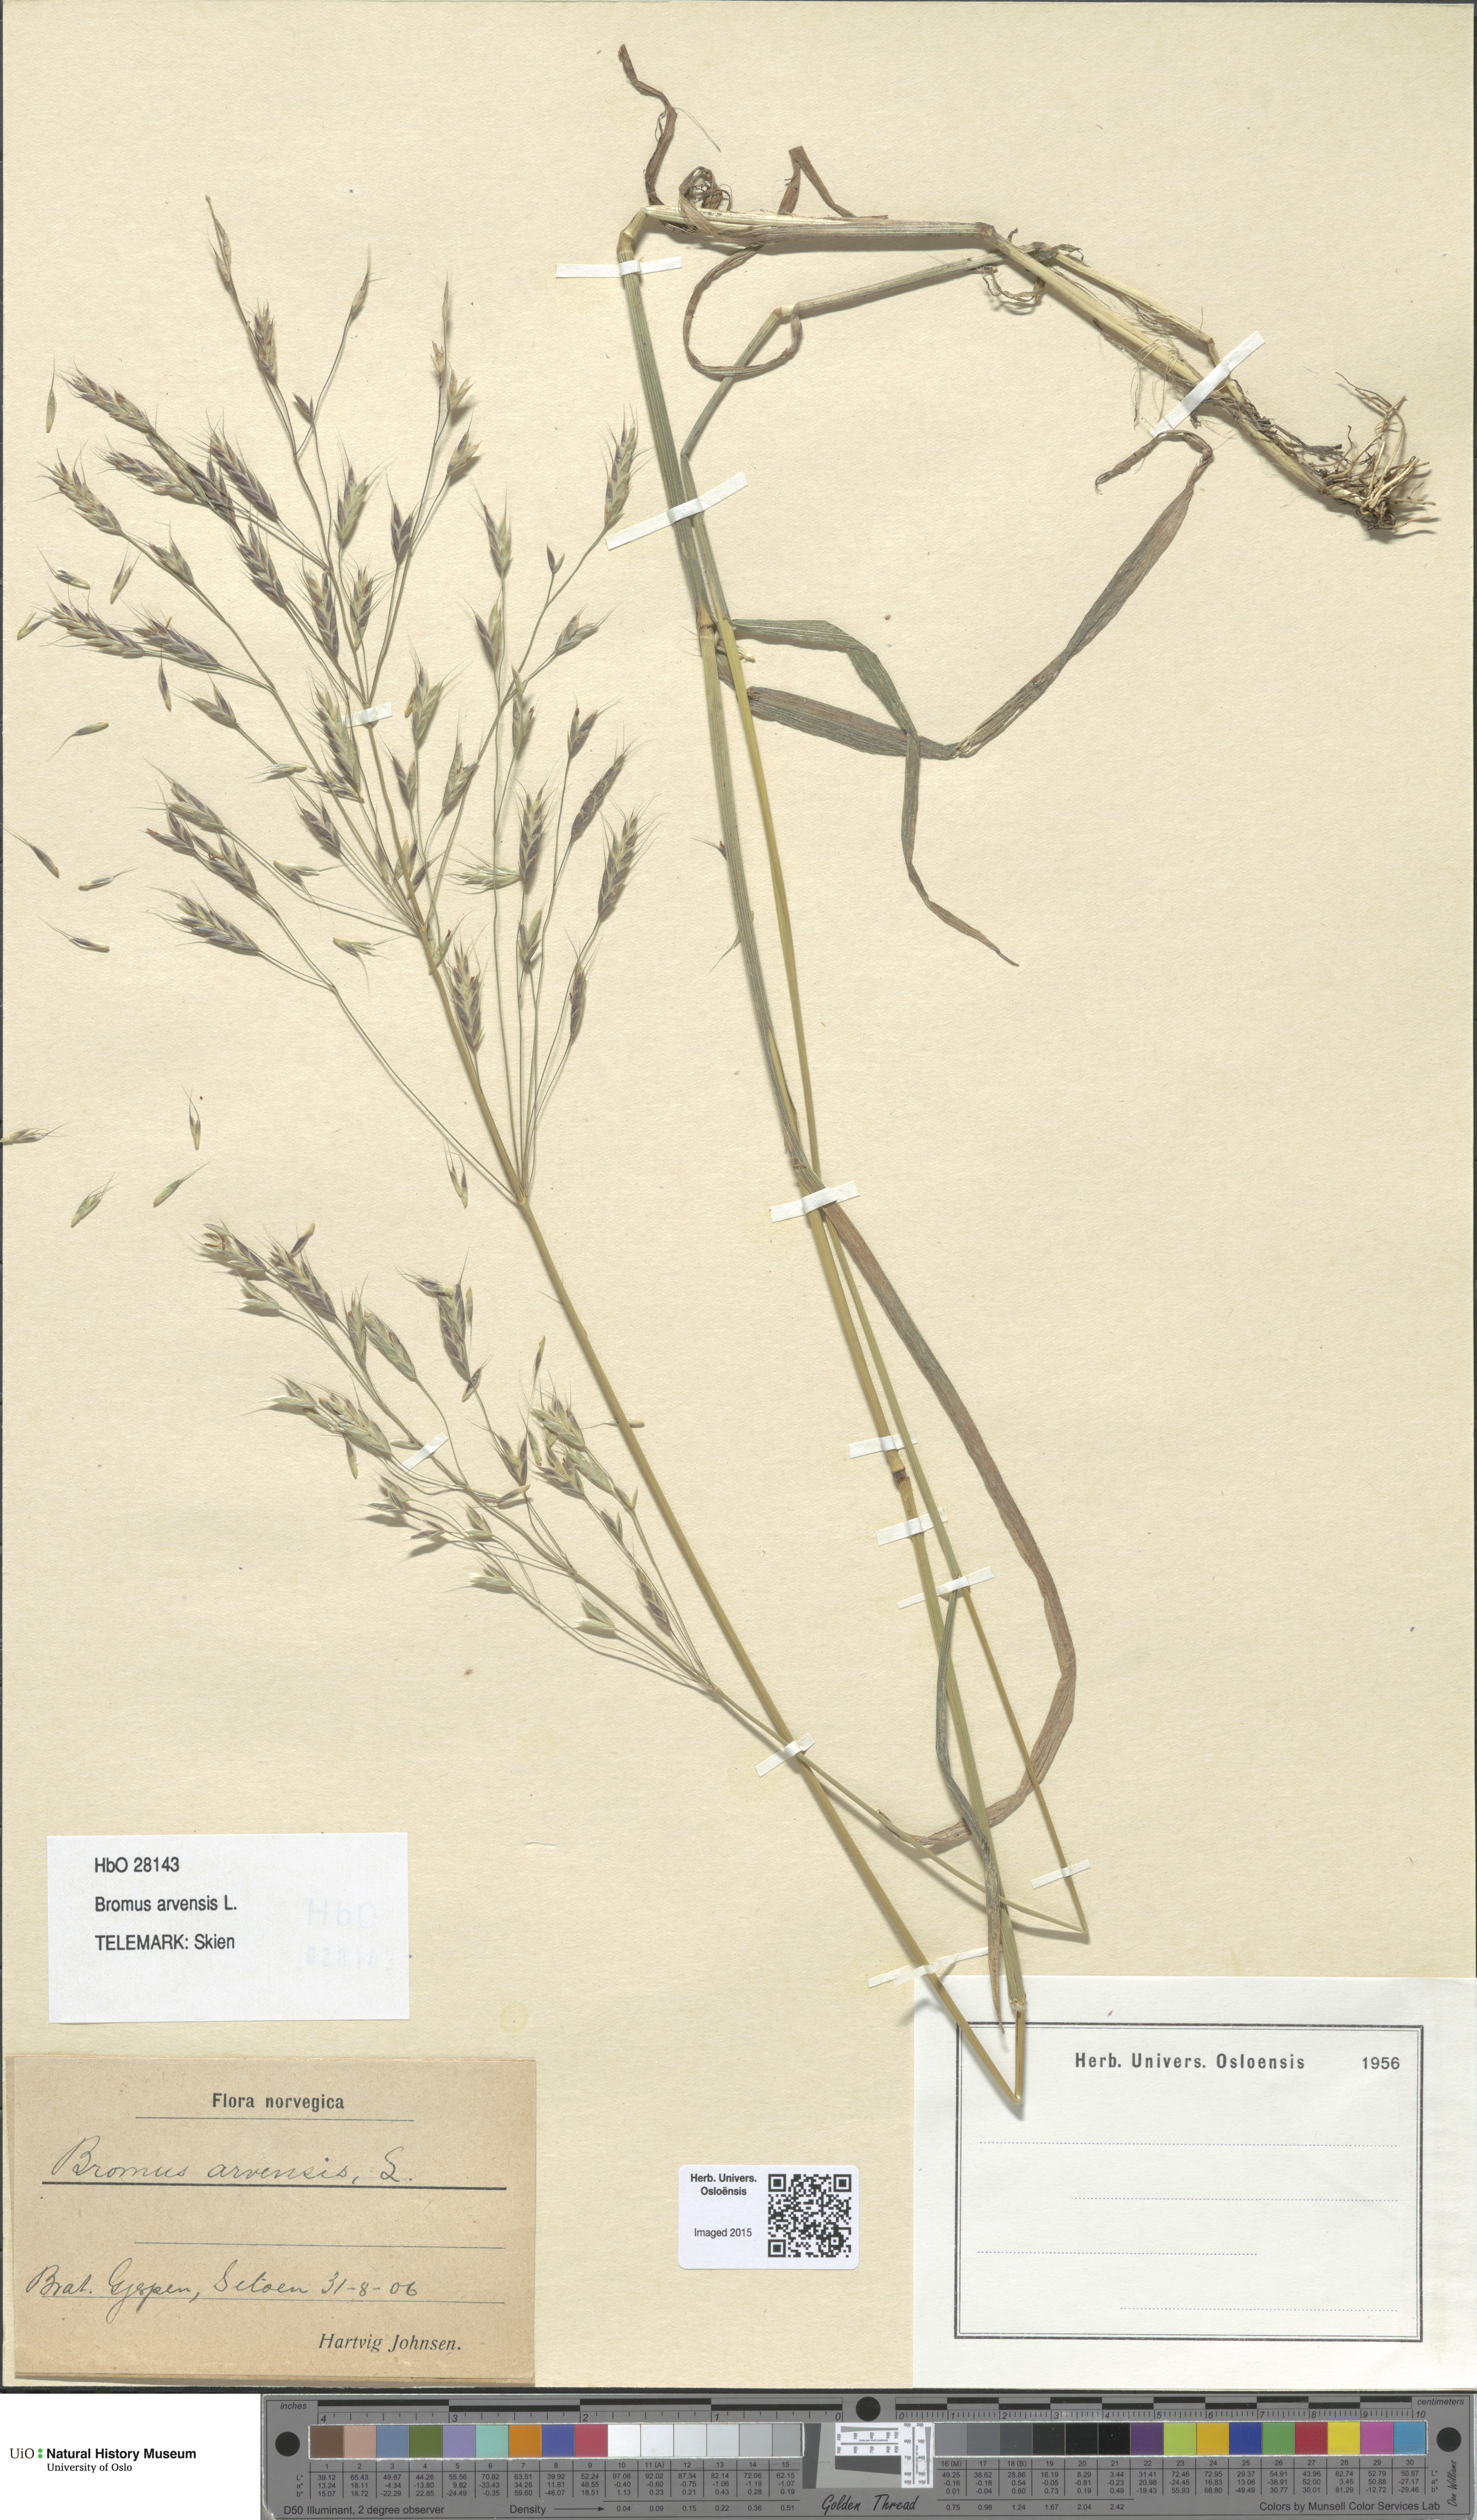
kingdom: Plantae
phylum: Tracheophyta
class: Liliopsida
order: Poales
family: Poaceae
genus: Bromus
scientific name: Bromus arvensis
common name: Field brome
